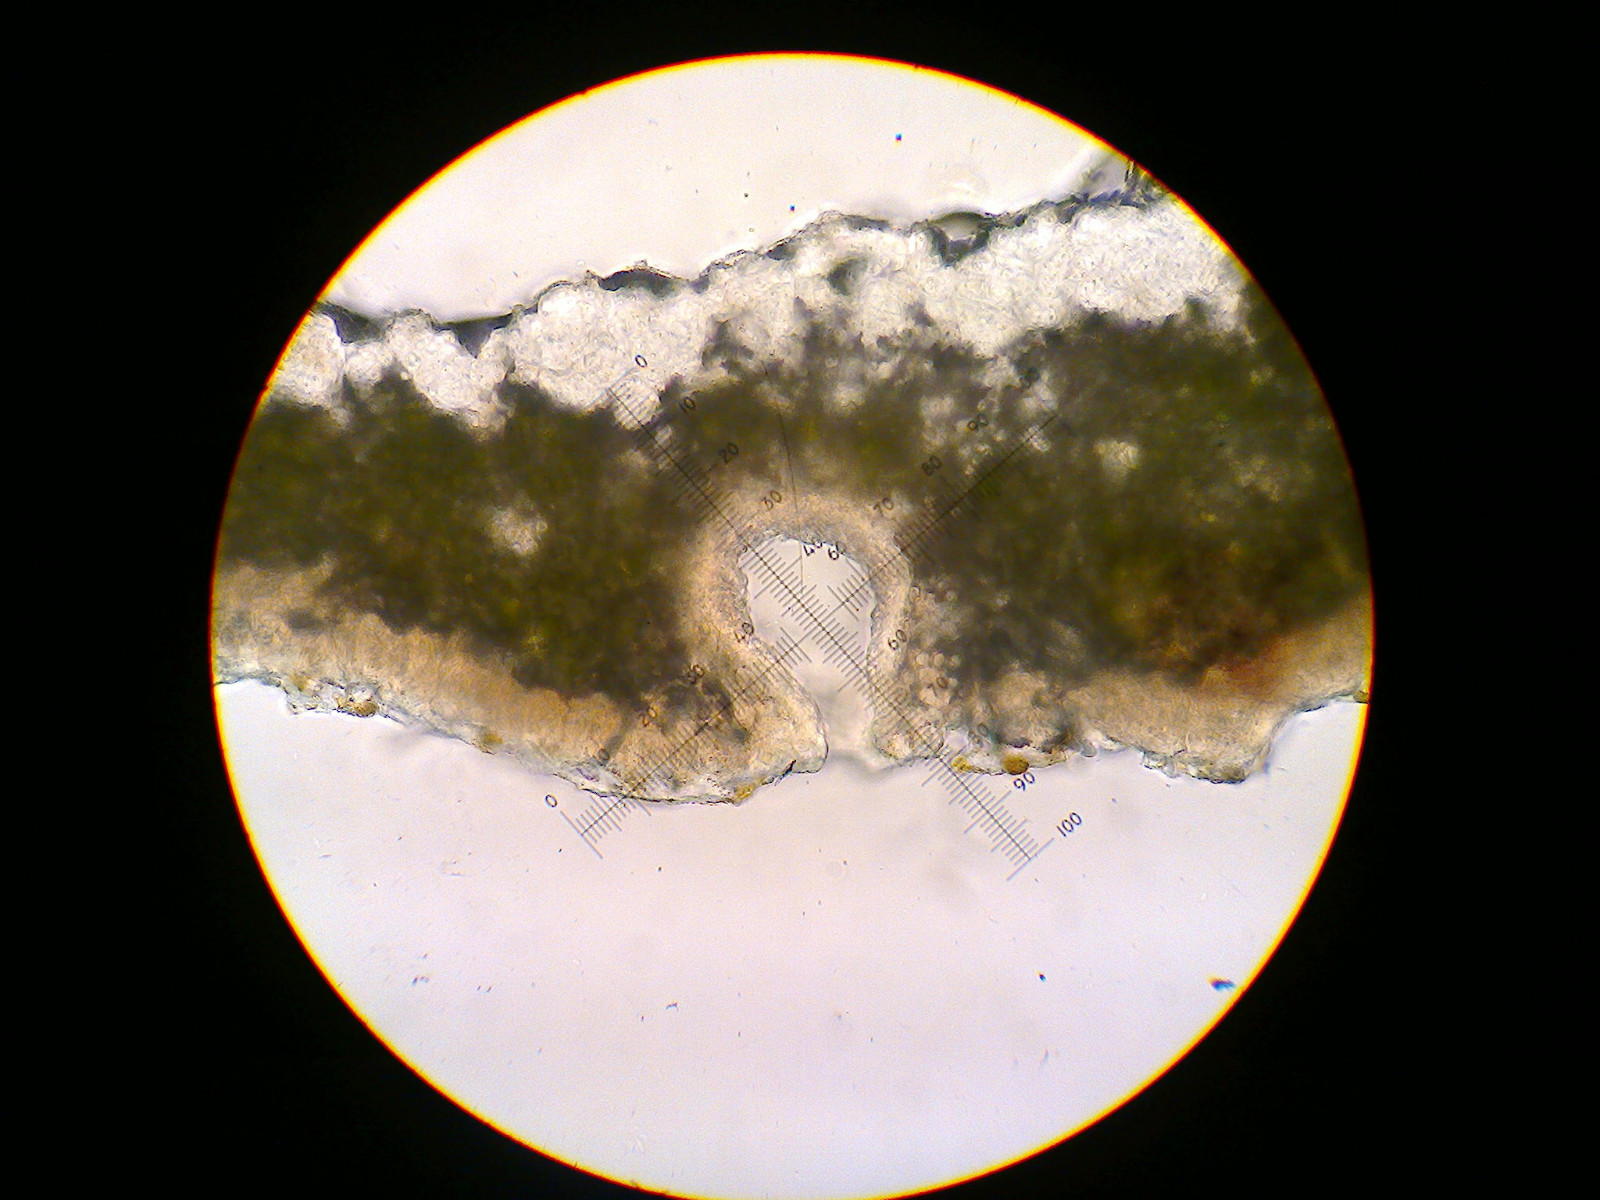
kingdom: Fungi
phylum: Ascomycota
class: Lecanoromycetes
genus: Bachmanniomyces
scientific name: Bachmanniomyces uncialicola
